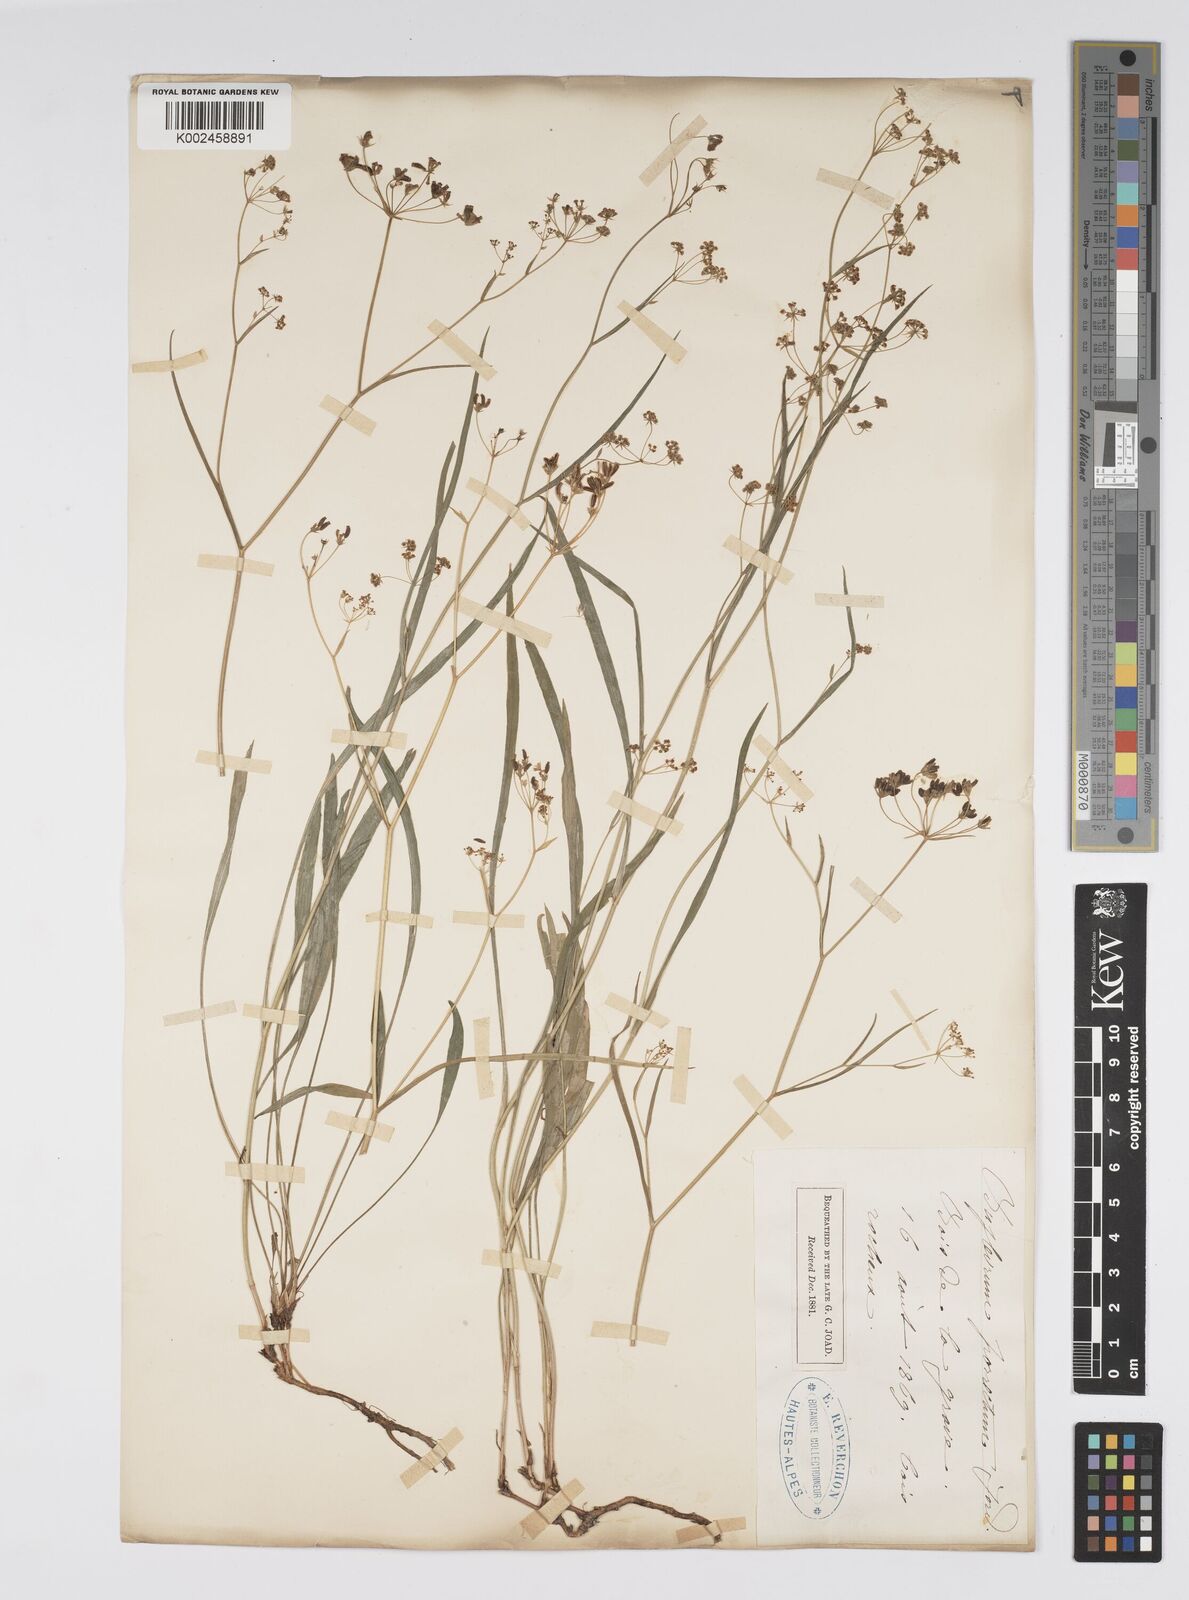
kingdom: Plantae
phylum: Tracheophyta
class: Magnoliopsida
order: Apiales
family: Apiaceae
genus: Bupleurum
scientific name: Bupleurum falcatum
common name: Sickle-leaved hare's-ear
